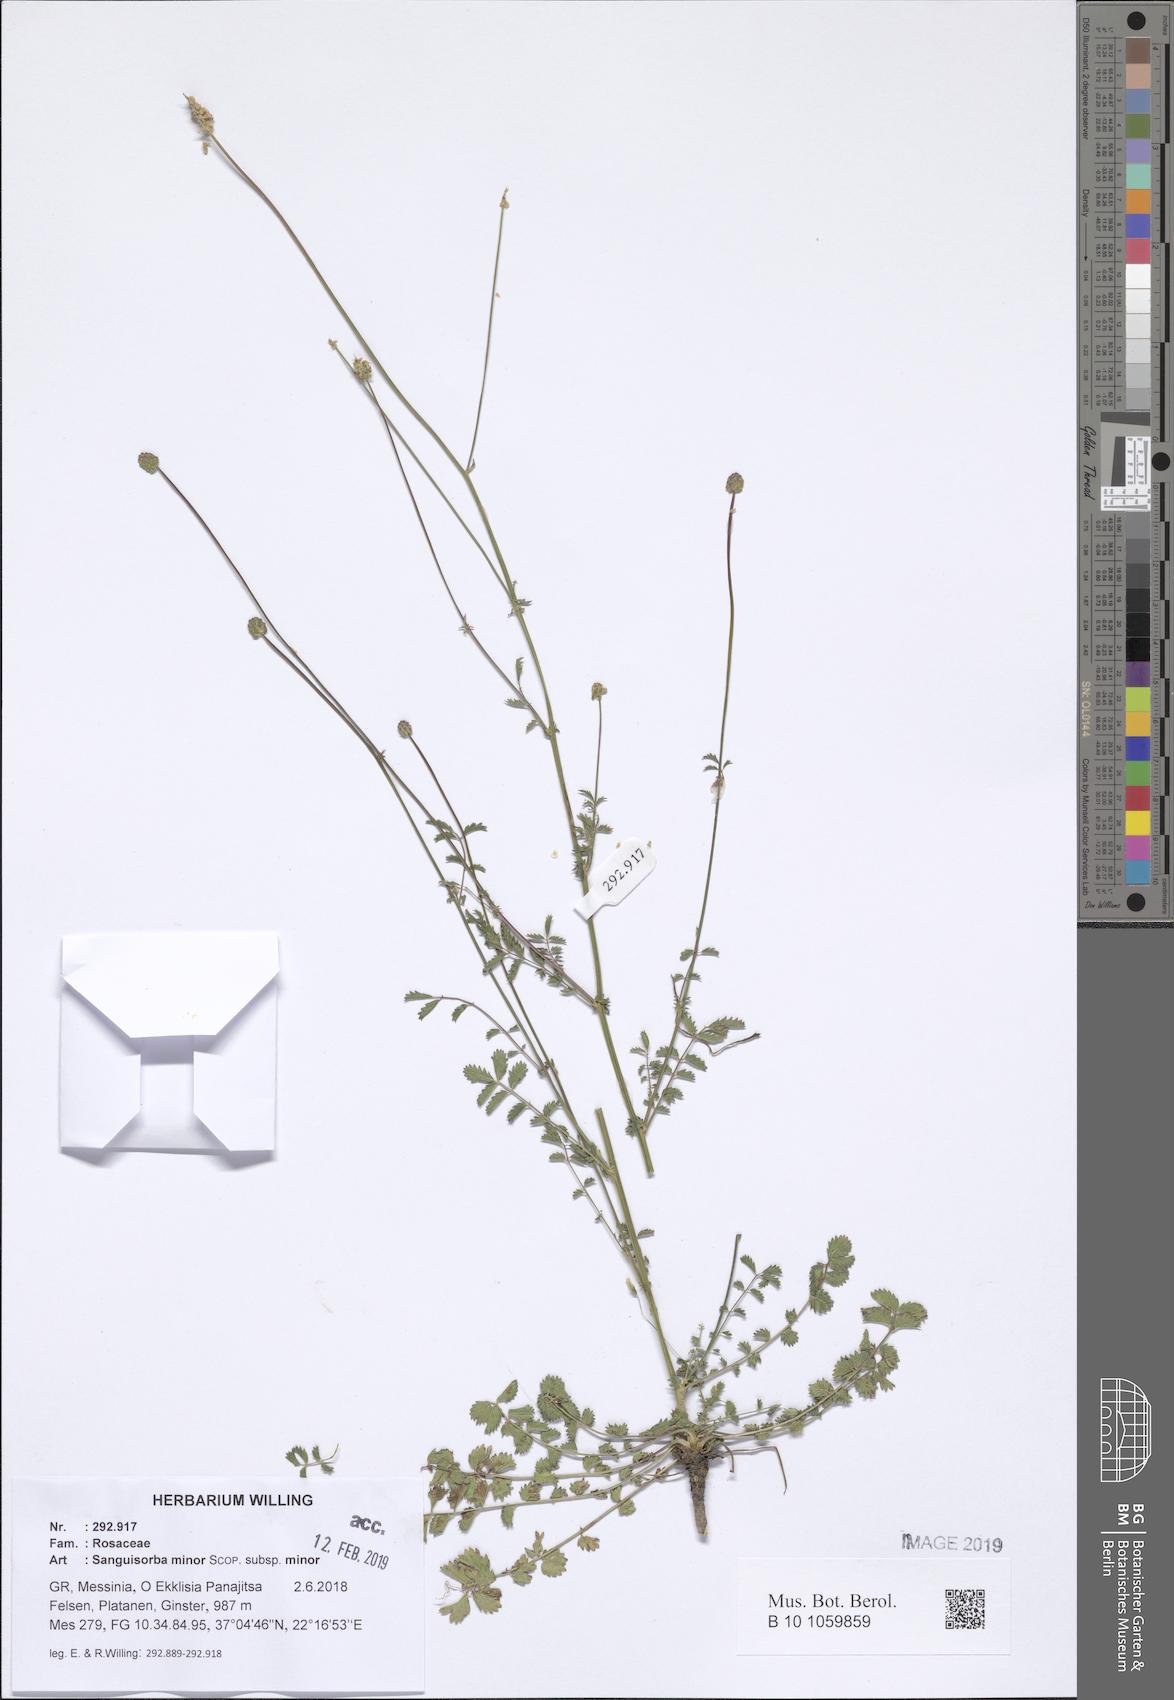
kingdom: Plantae
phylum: Tracheophyta
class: Magnoliopsida
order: Rosales
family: Rosaceae
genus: Poterium
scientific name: Poterium sanguisorba
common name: Salad burnet
